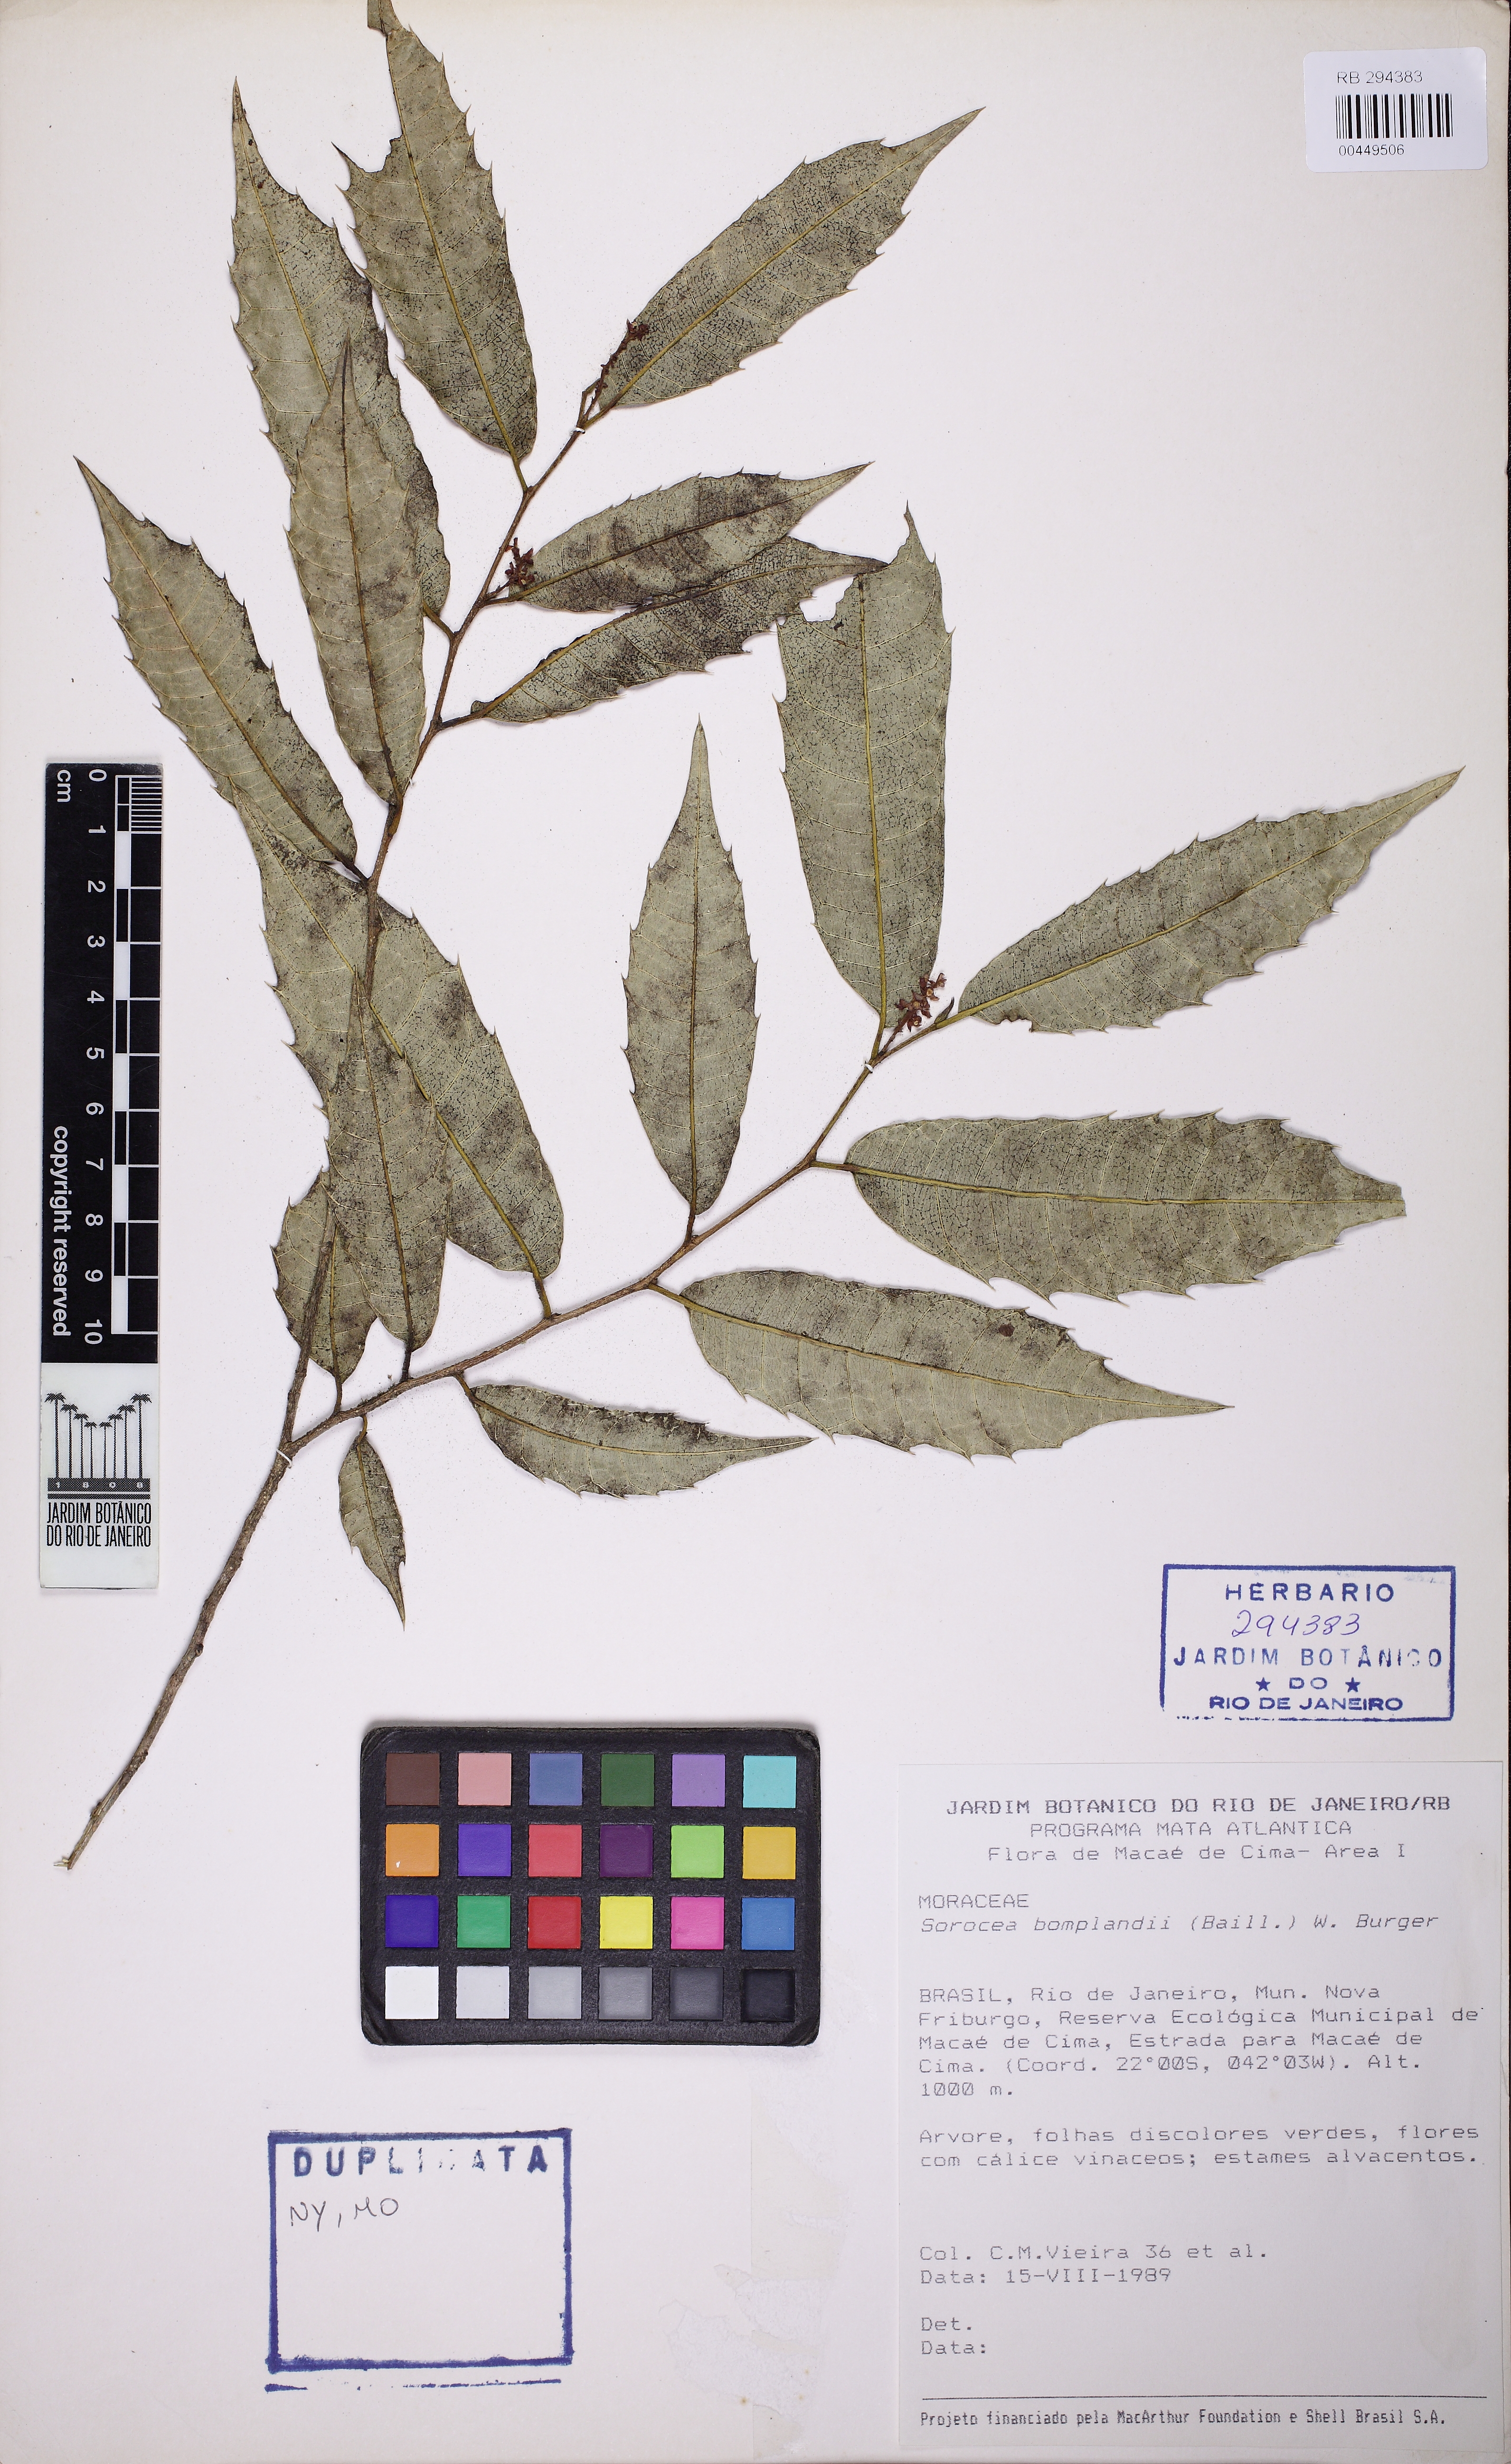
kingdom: Plantae
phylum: Tracheophyta
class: Magnoliopsida
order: Rosales
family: Moraceae
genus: Sorocea
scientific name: Sorocea bonplandii
